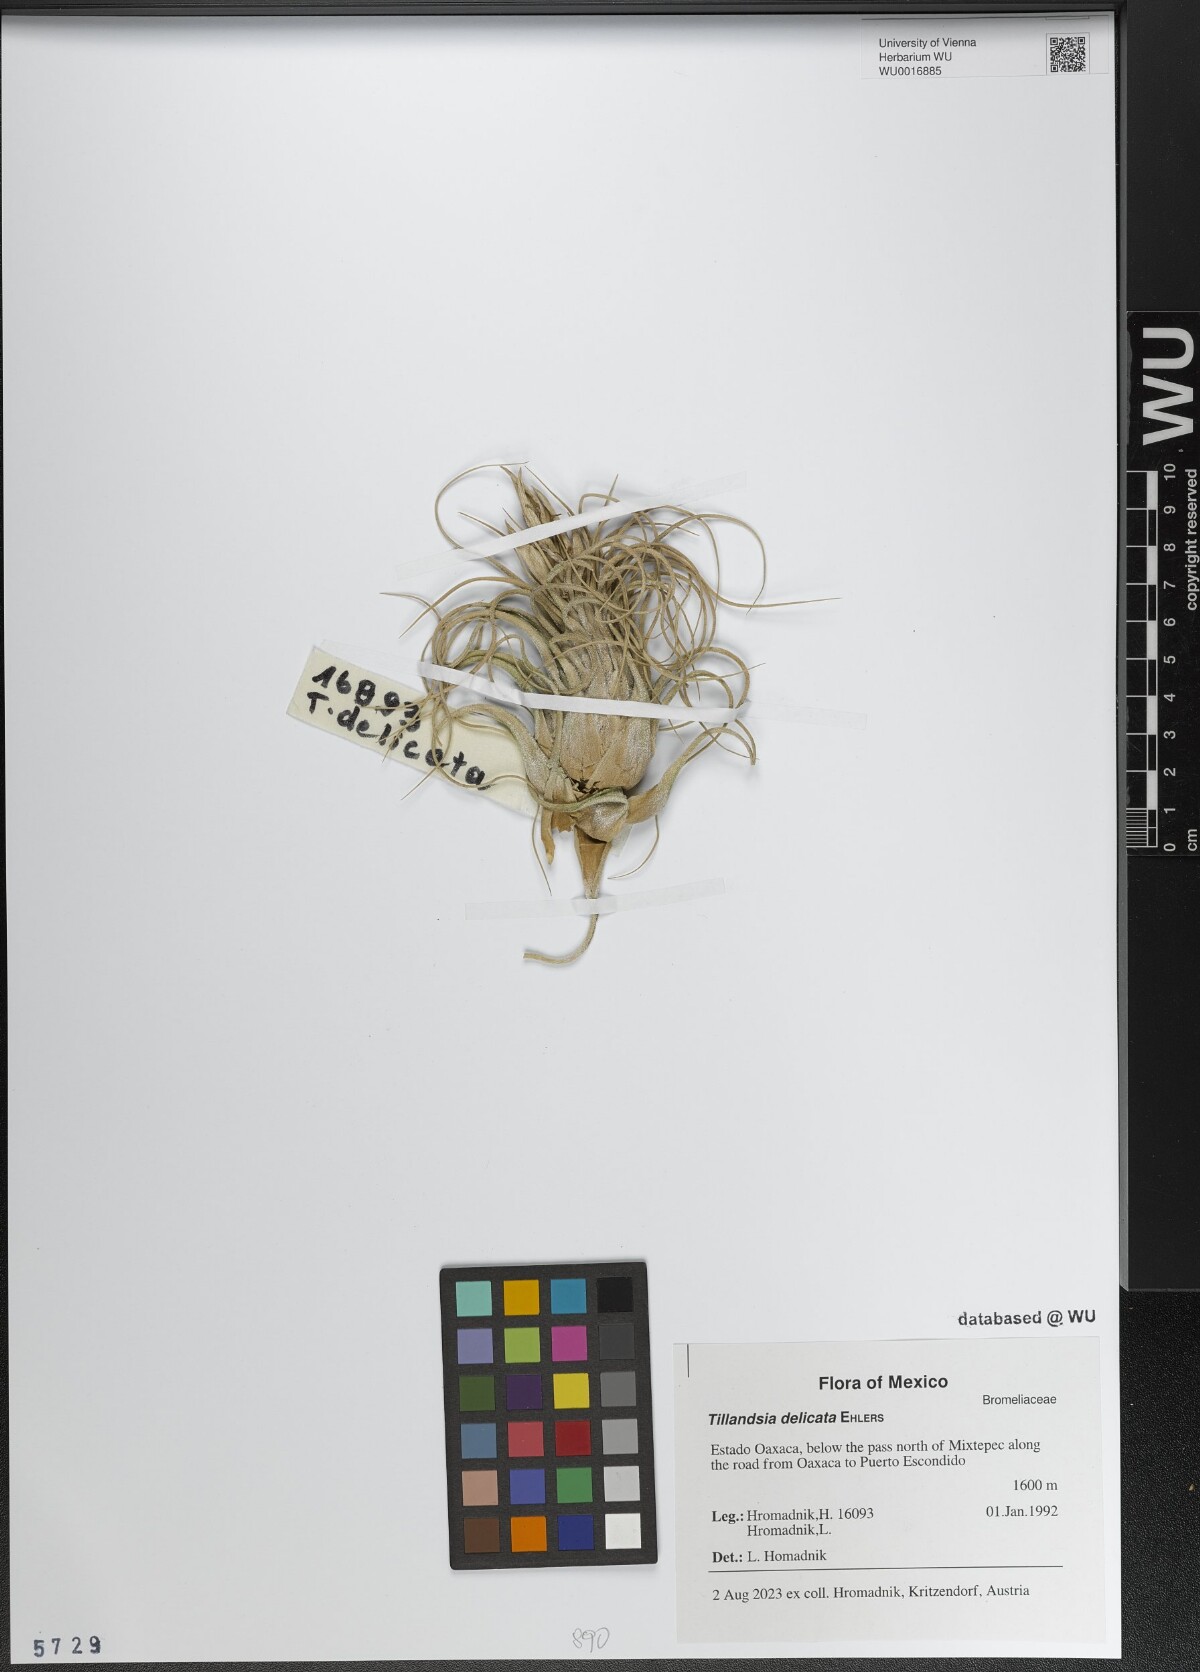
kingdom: Plantae
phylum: Tracheophyta
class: Liliopsida
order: Poales
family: Bromeliaceae
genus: Tillandsia
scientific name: Tillandsia delicata
